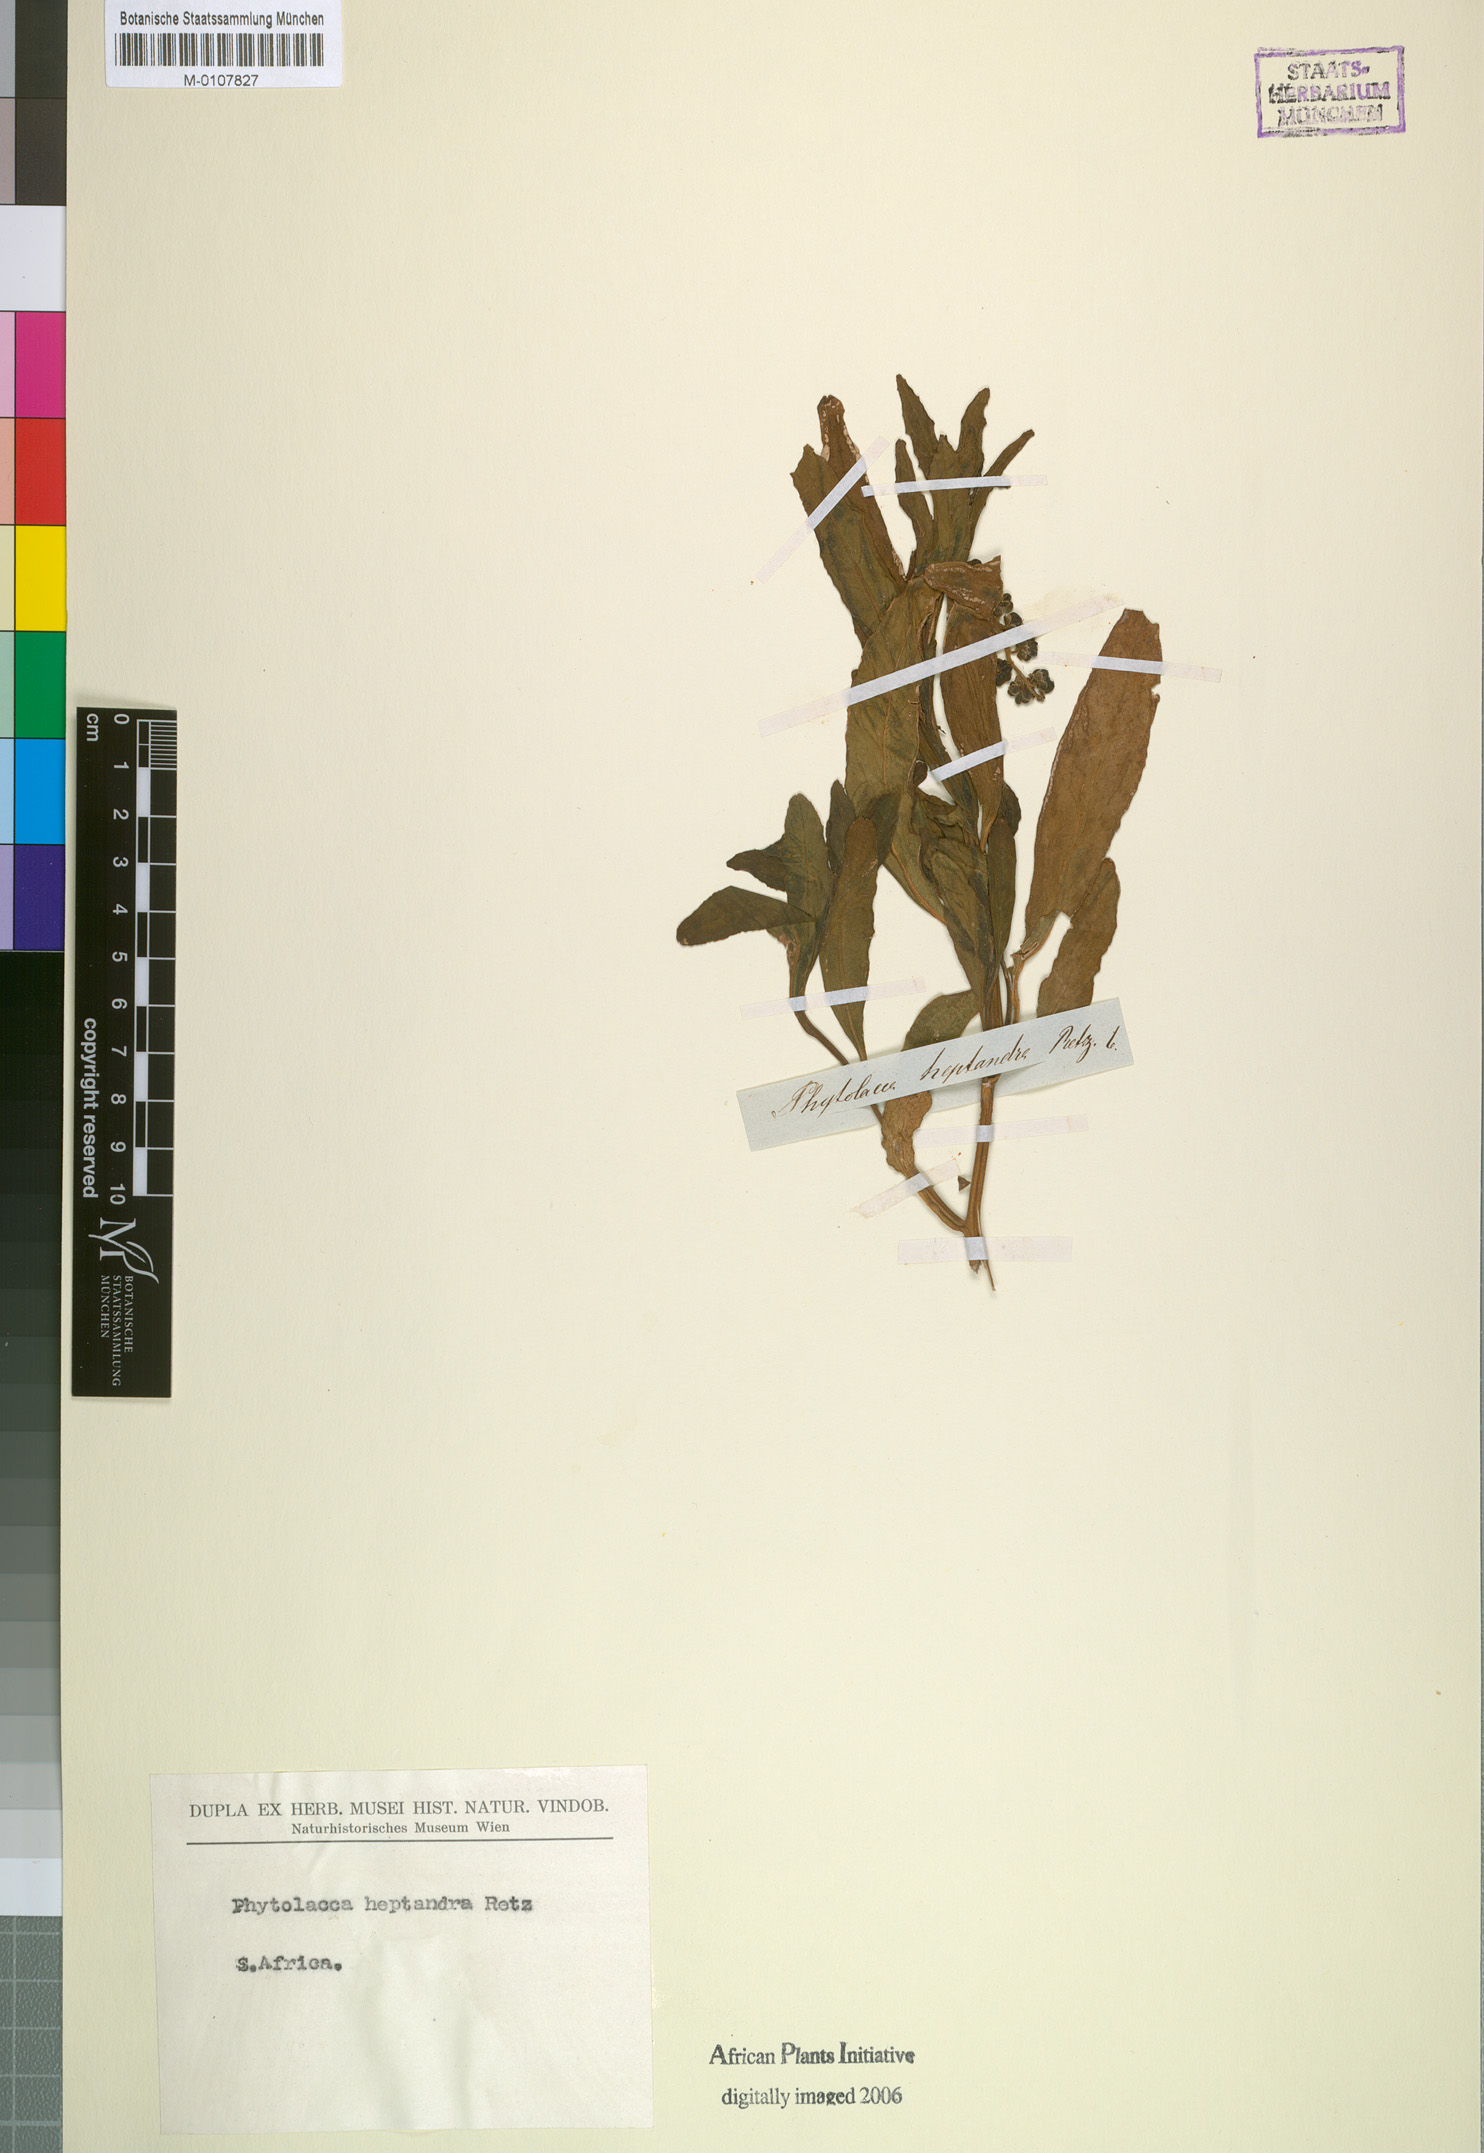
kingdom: Plantae
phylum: Tracheophyta
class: Magnoliopsida
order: Caryophyllales
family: Phytolaccaceae
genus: Phytolacca
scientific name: Phytolacca heptandra
